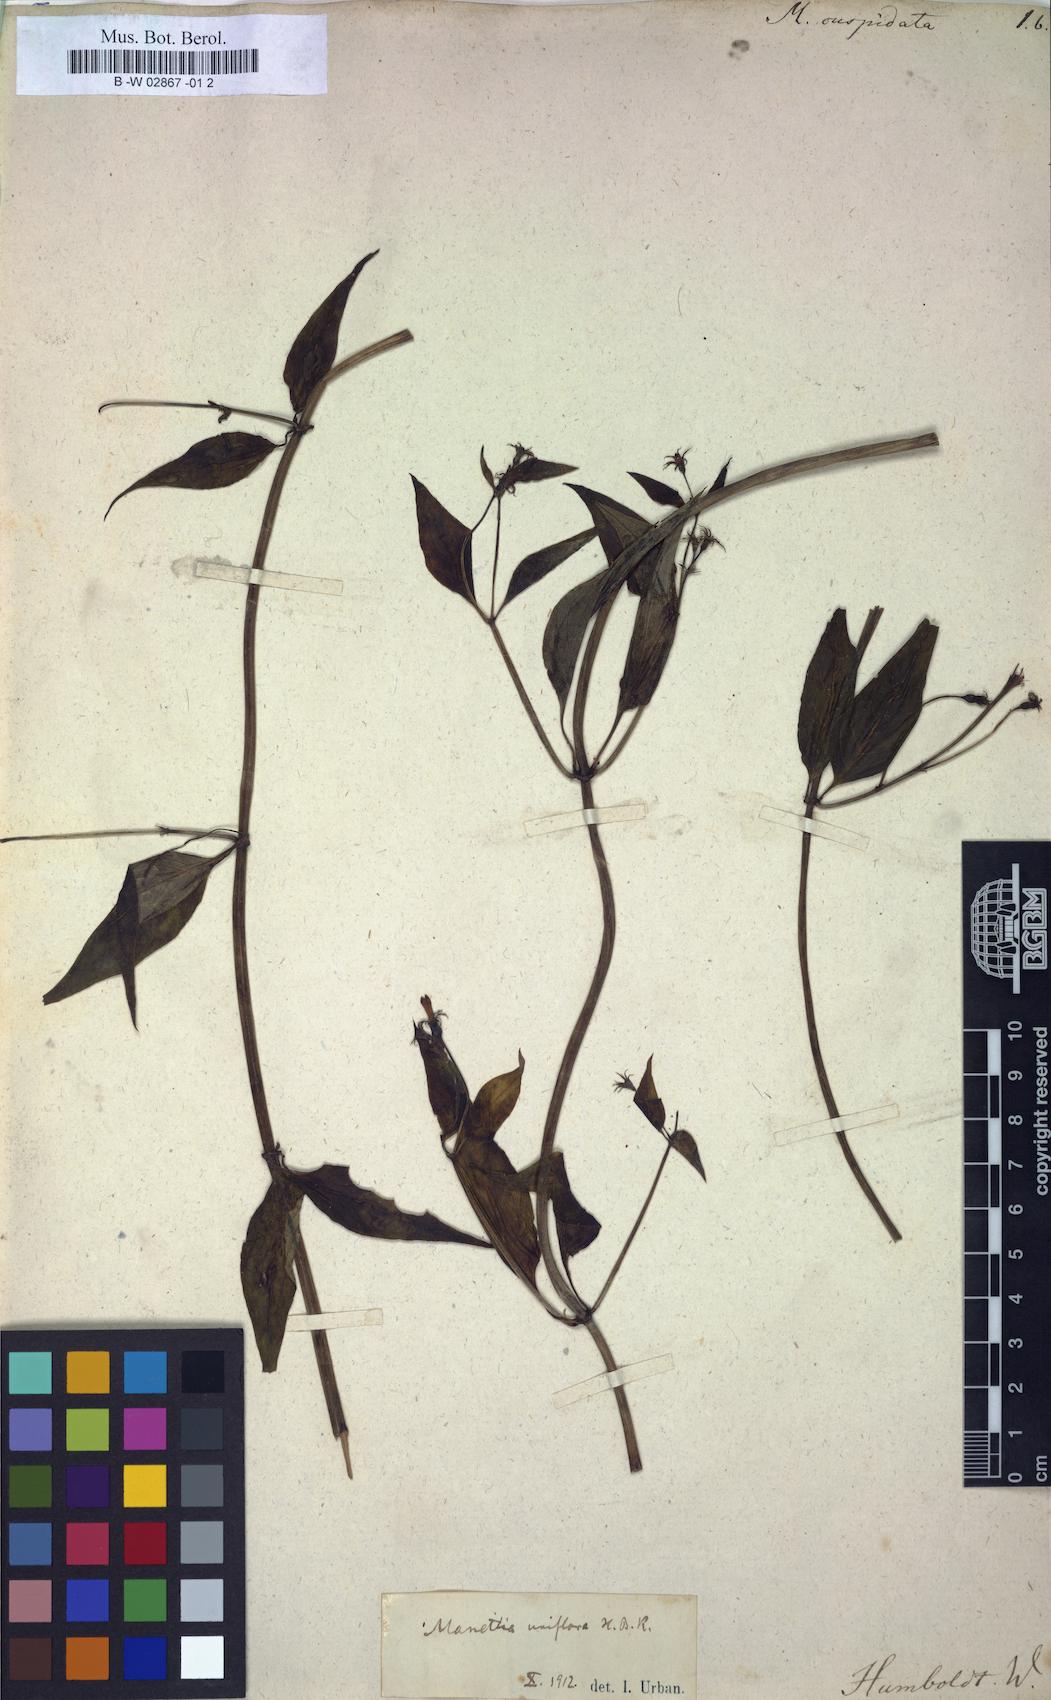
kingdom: Plantae
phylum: Tracheophyta
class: Magnoliopsida
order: Gentianales
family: Rubiaceae
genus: Manettia
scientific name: Manettia reclinata
